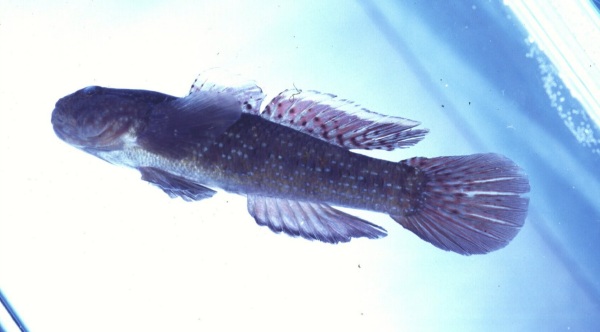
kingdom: Animalia
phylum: Chordata
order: Perciformes
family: Gobiidae
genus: Bathygobius
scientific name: Bathygobius coalitus
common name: Whitespotted goby
